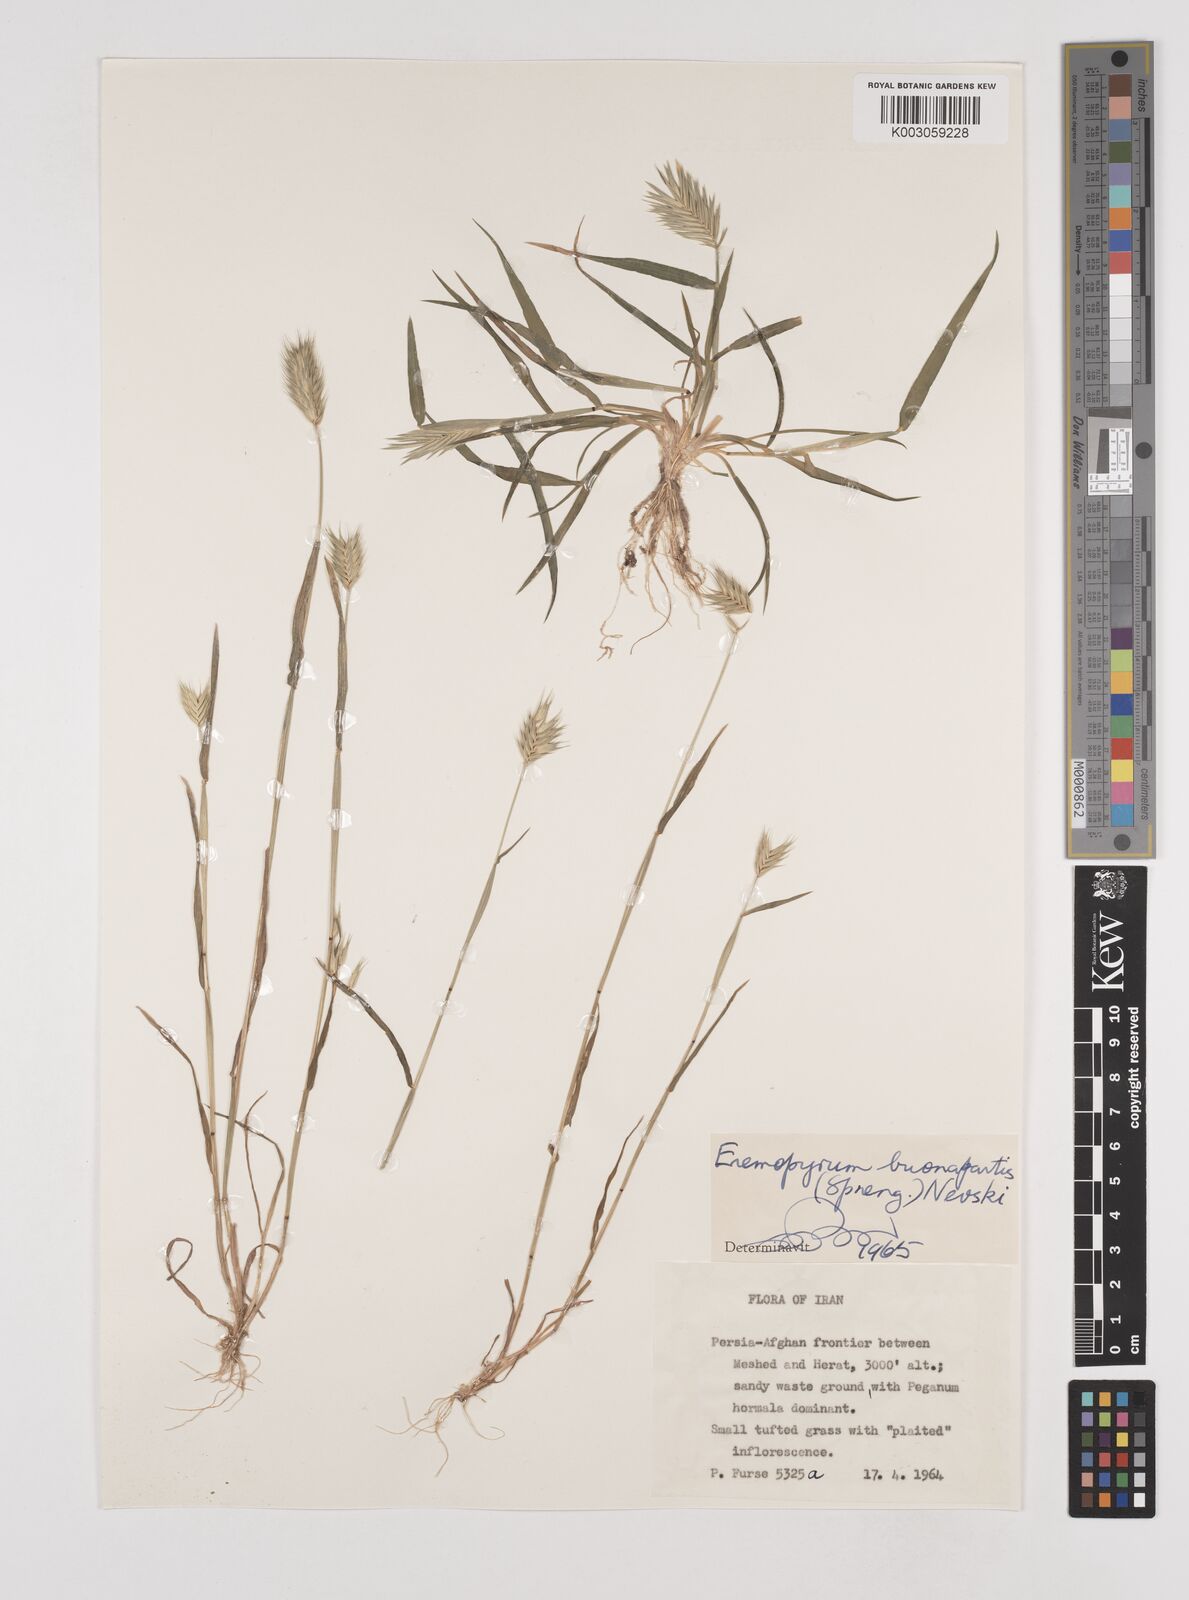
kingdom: Plantae
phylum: Tracheophyta
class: Liliopsida
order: Poales
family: Poaceae
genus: Eremopyrum
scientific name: Eremopyrum bonaepartis
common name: Tapertip false wheatgrass
